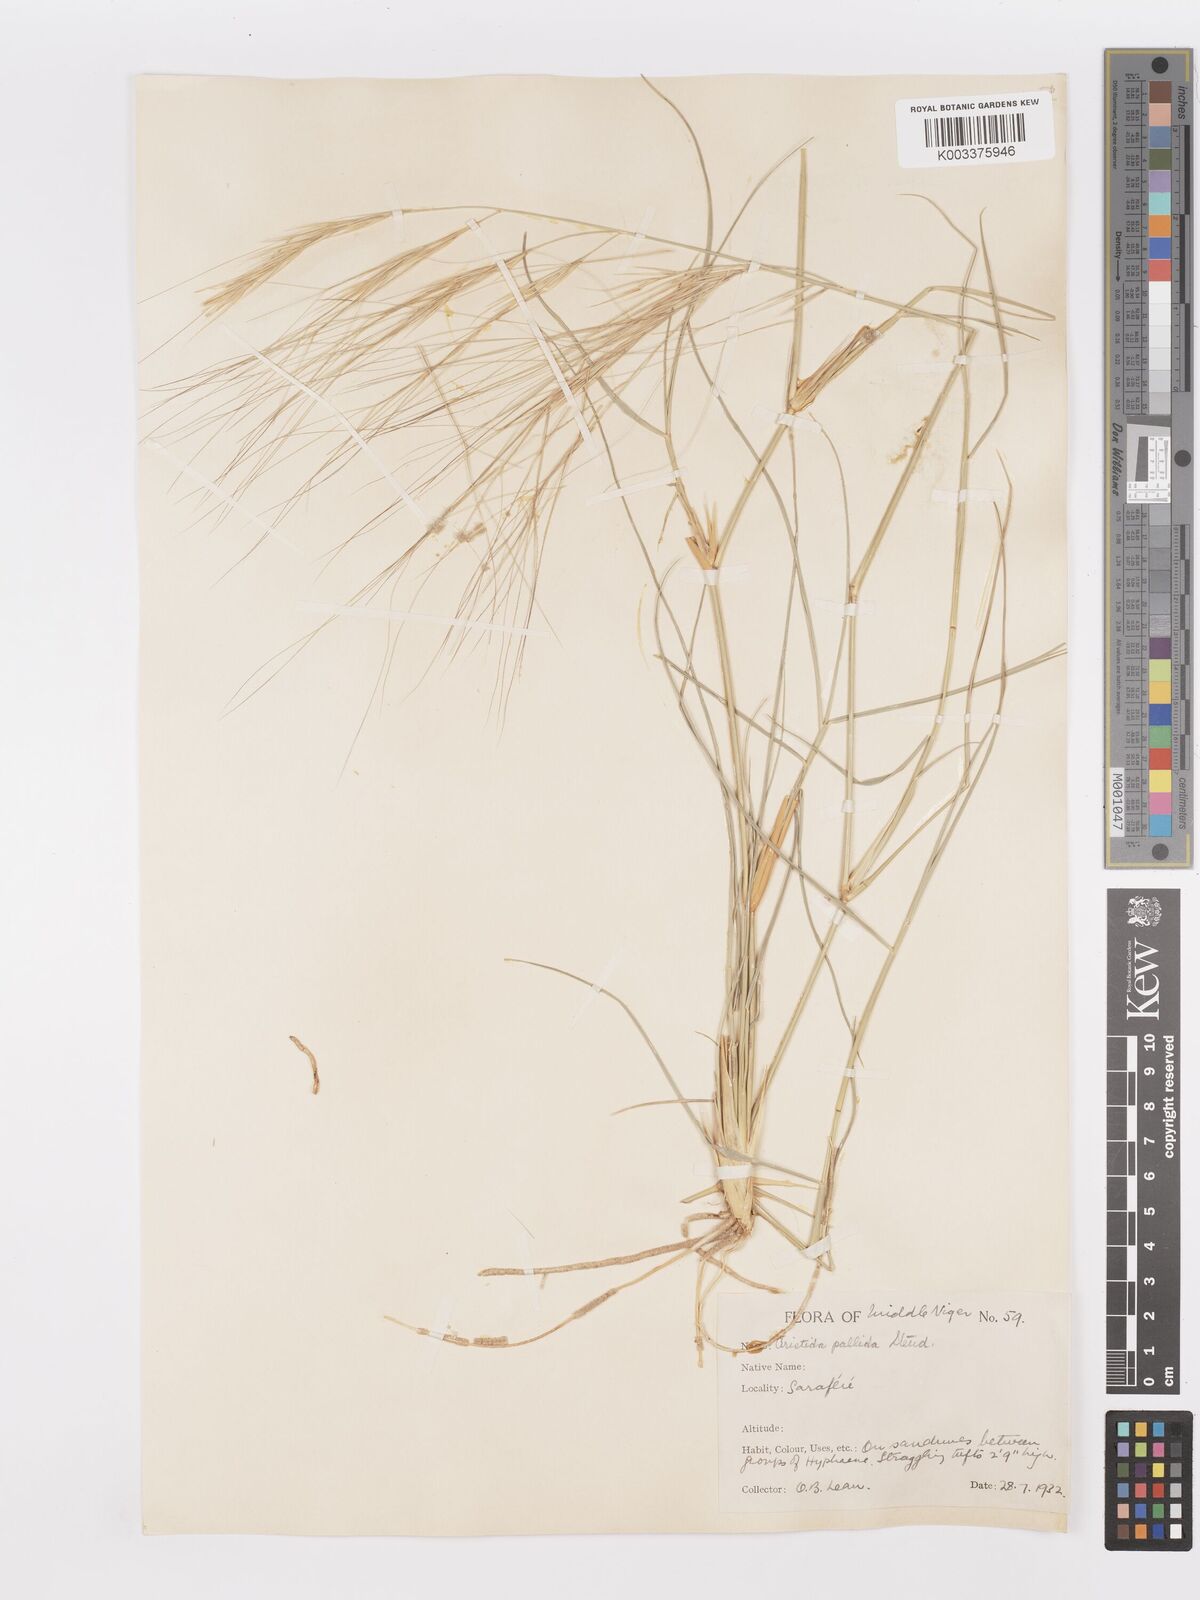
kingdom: Plantae
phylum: Tracheophyta
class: Liliopsida
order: Poales
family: Poaceae
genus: Aristida
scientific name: Aristida sieberiana
